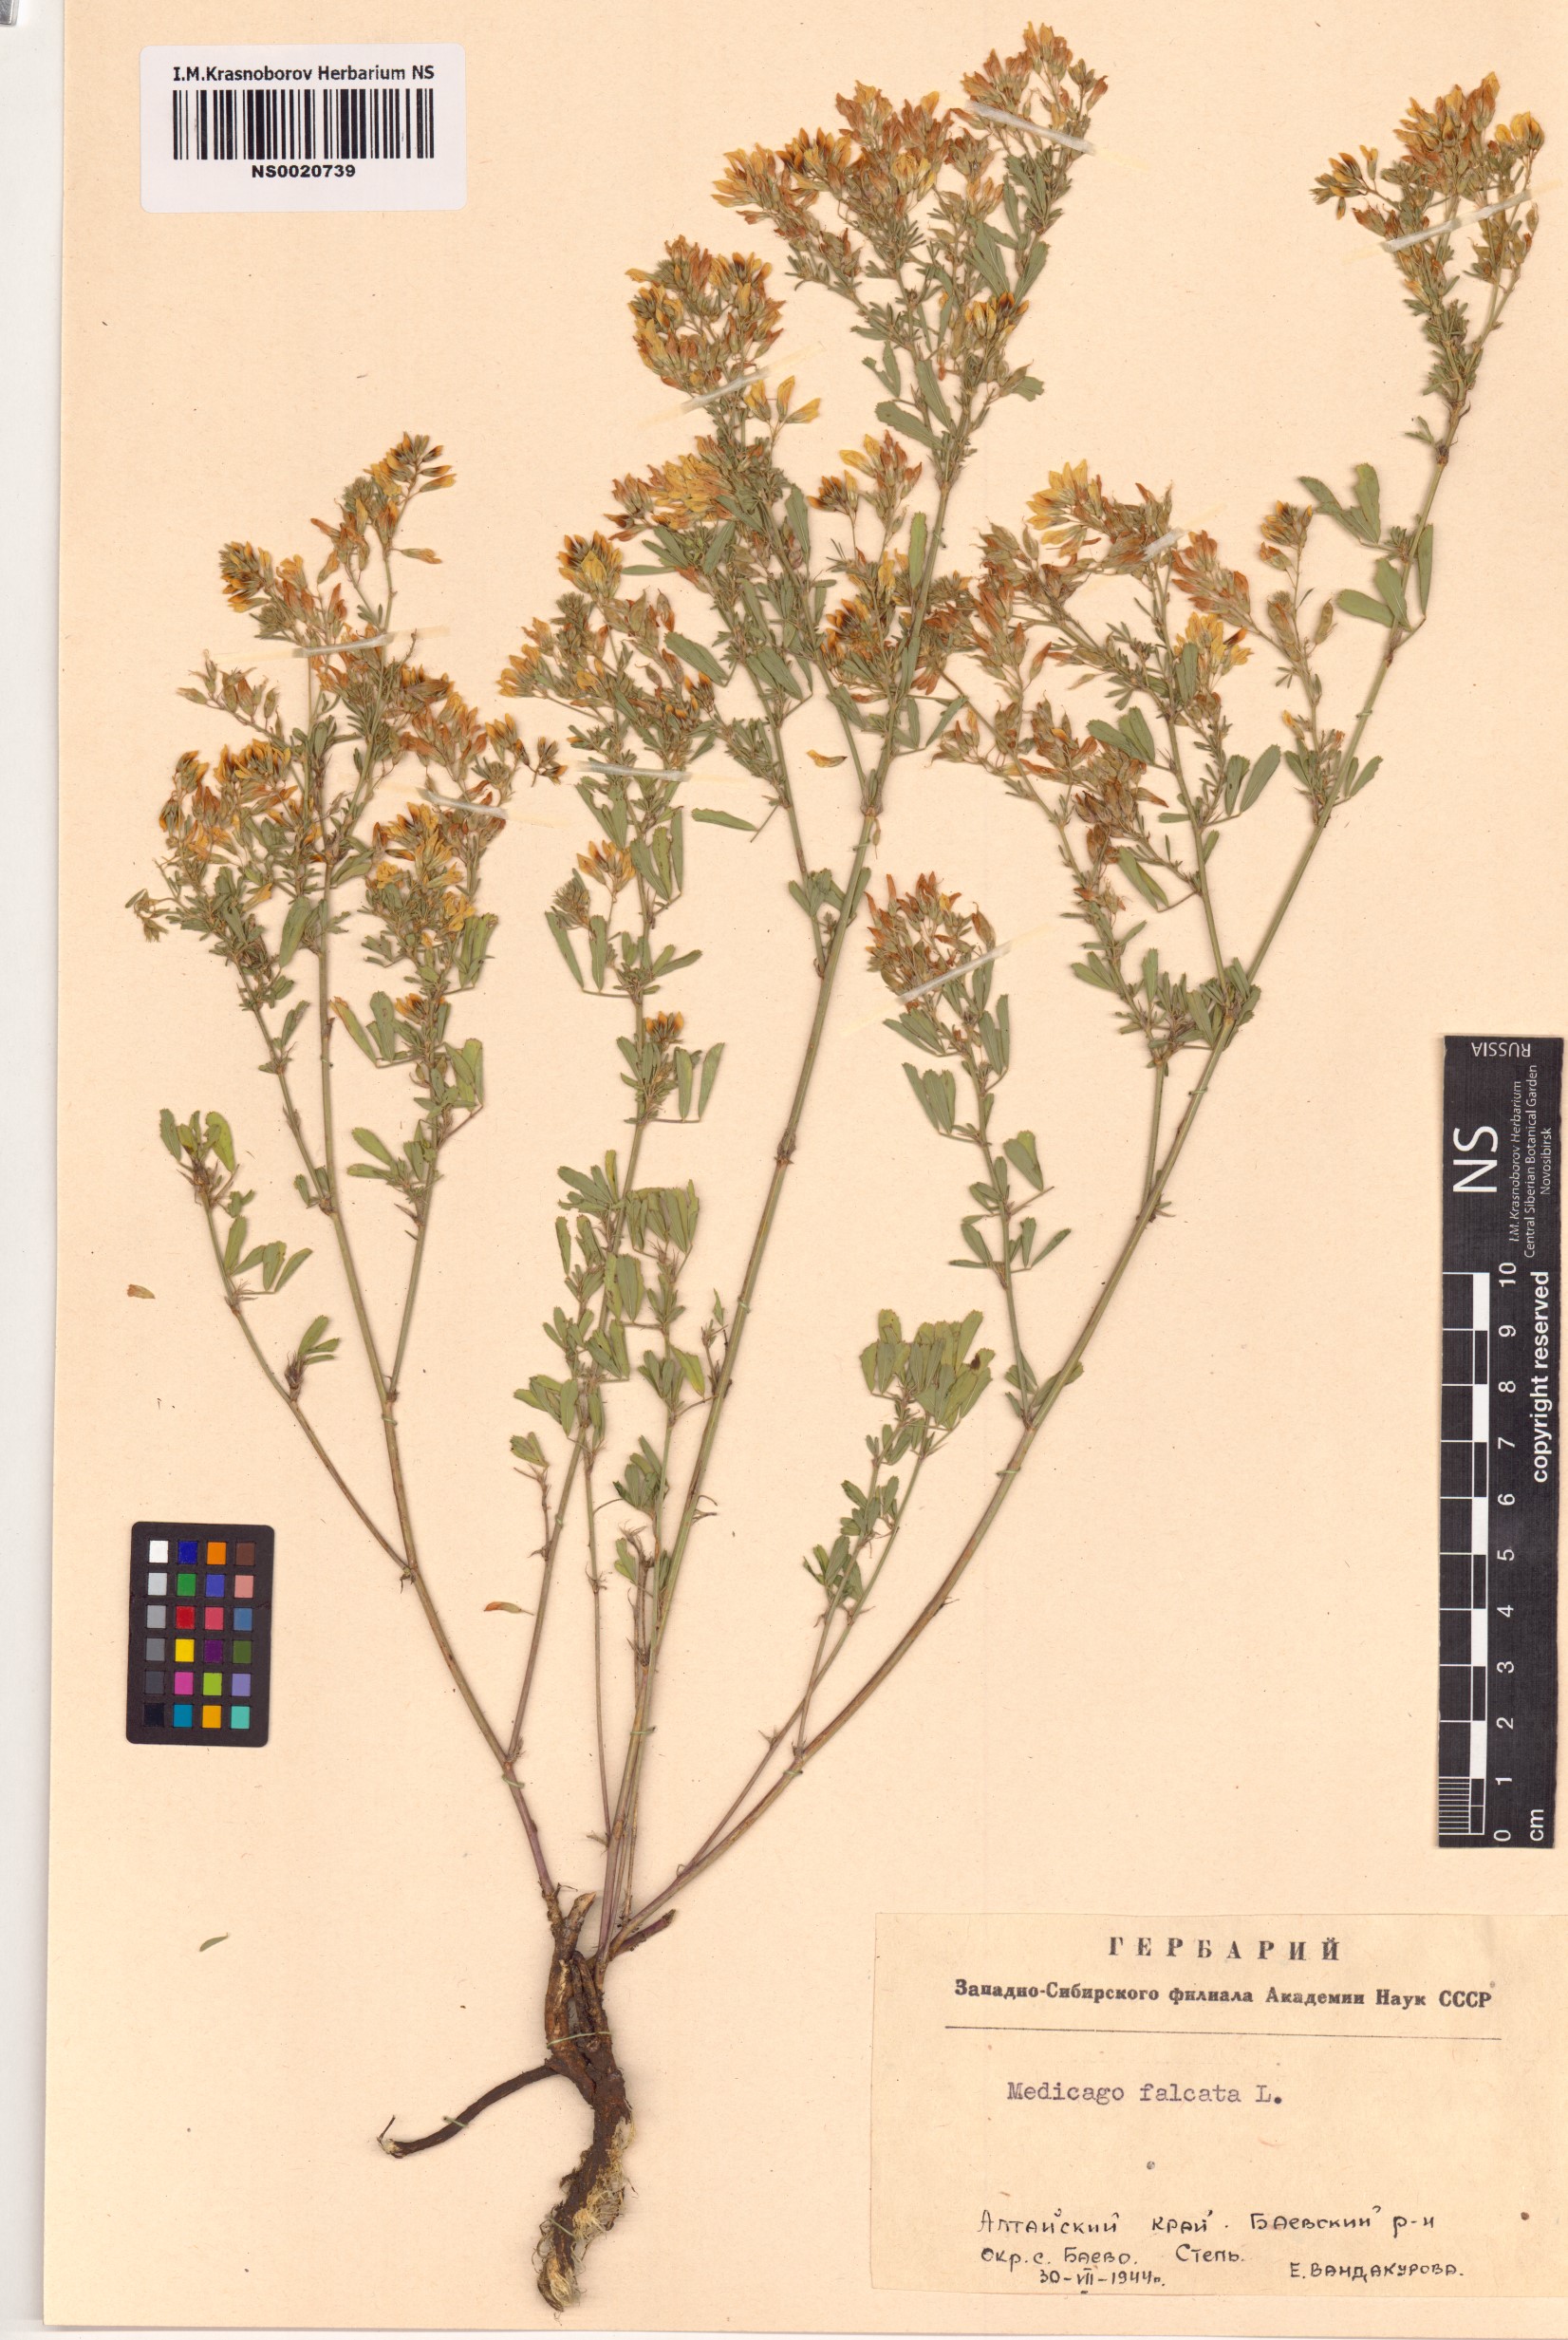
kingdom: Plantae
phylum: Tracheophyta
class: Magnoliopsida
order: Fabales
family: Fabaceae
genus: Medicago
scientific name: Medicago falcata
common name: Sickle medick
